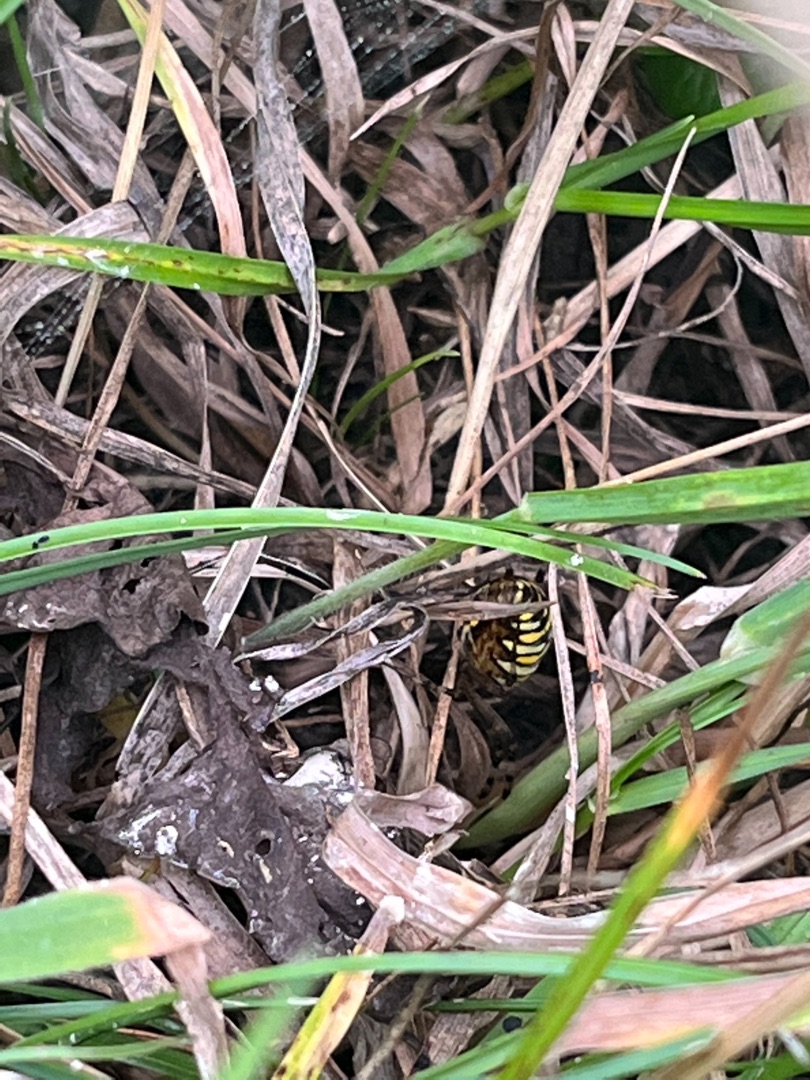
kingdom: Animalia
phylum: Arthropoda
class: Arachnida
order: Araneae
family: Araneidae
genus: Argiope
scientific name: Argiope bruennichi
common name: Hvepseedderkop
